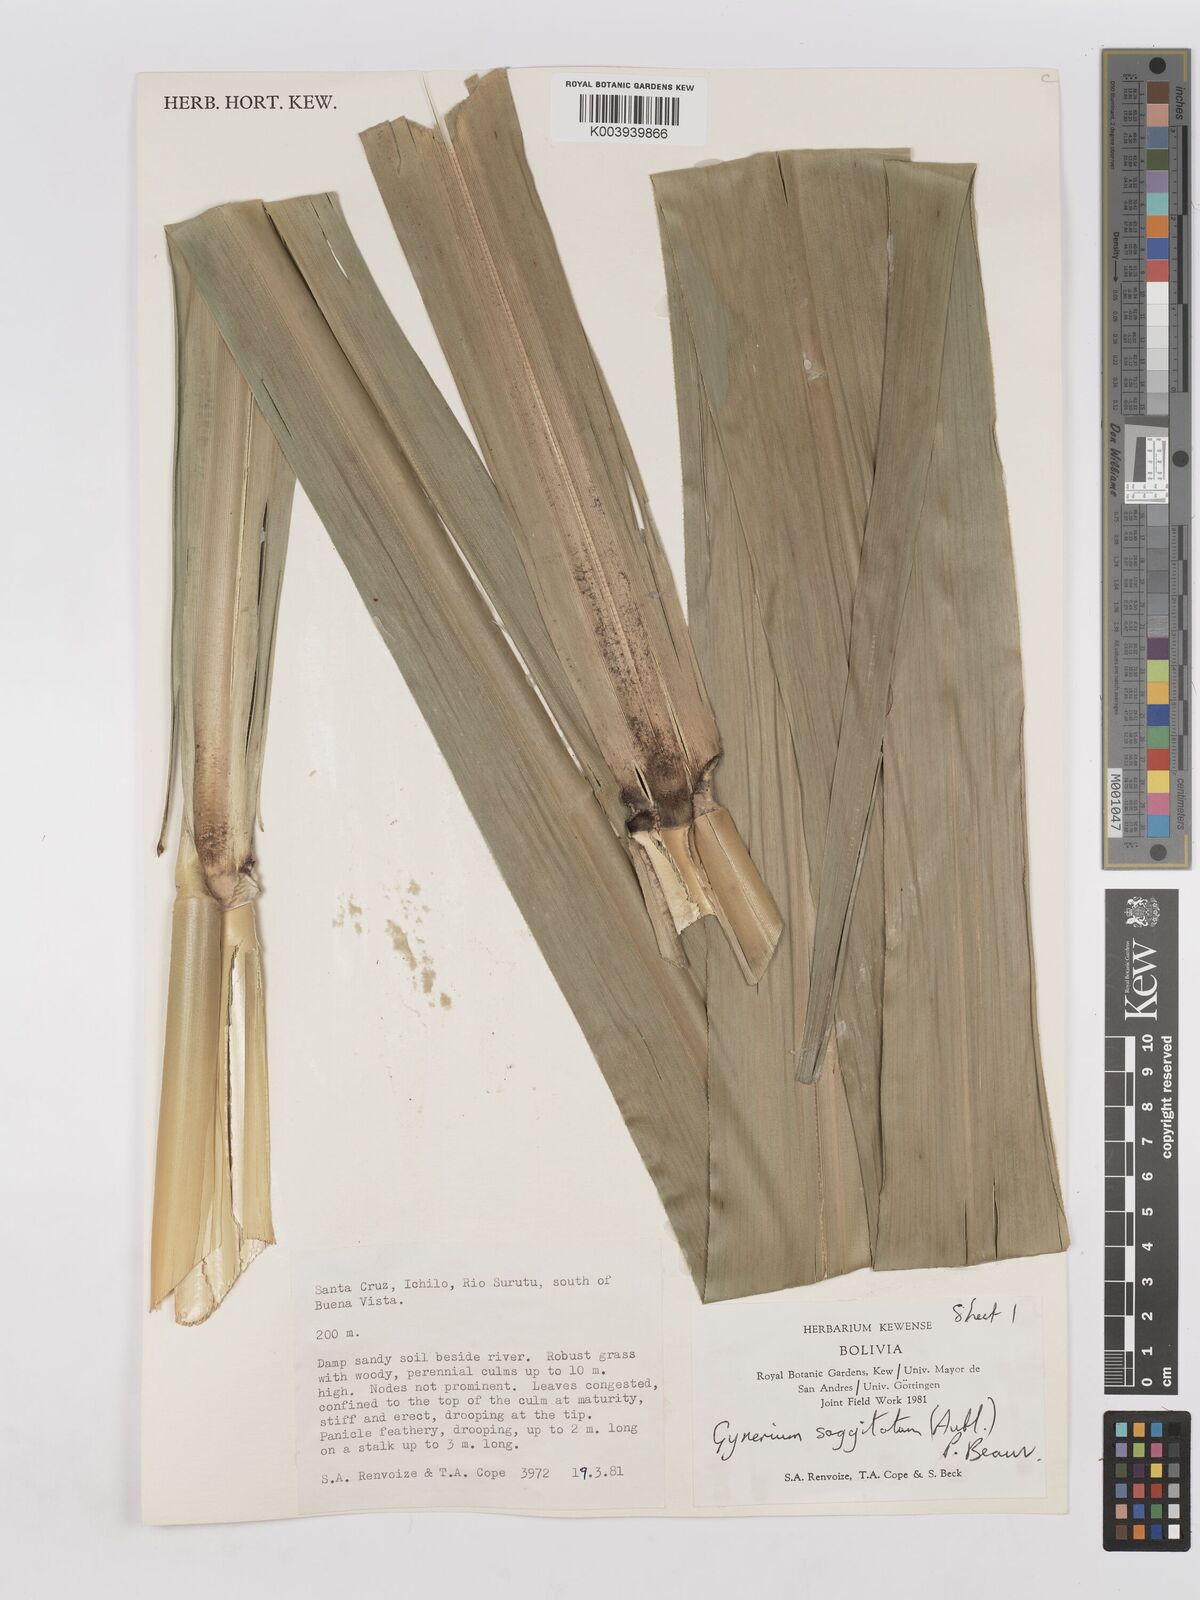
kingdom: Plantae
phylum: Tracheophyta
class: Liliopsida
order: Poales
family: Poaceae
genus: Gynerium
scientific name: Gynerium sagittatum
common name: Wild cane
